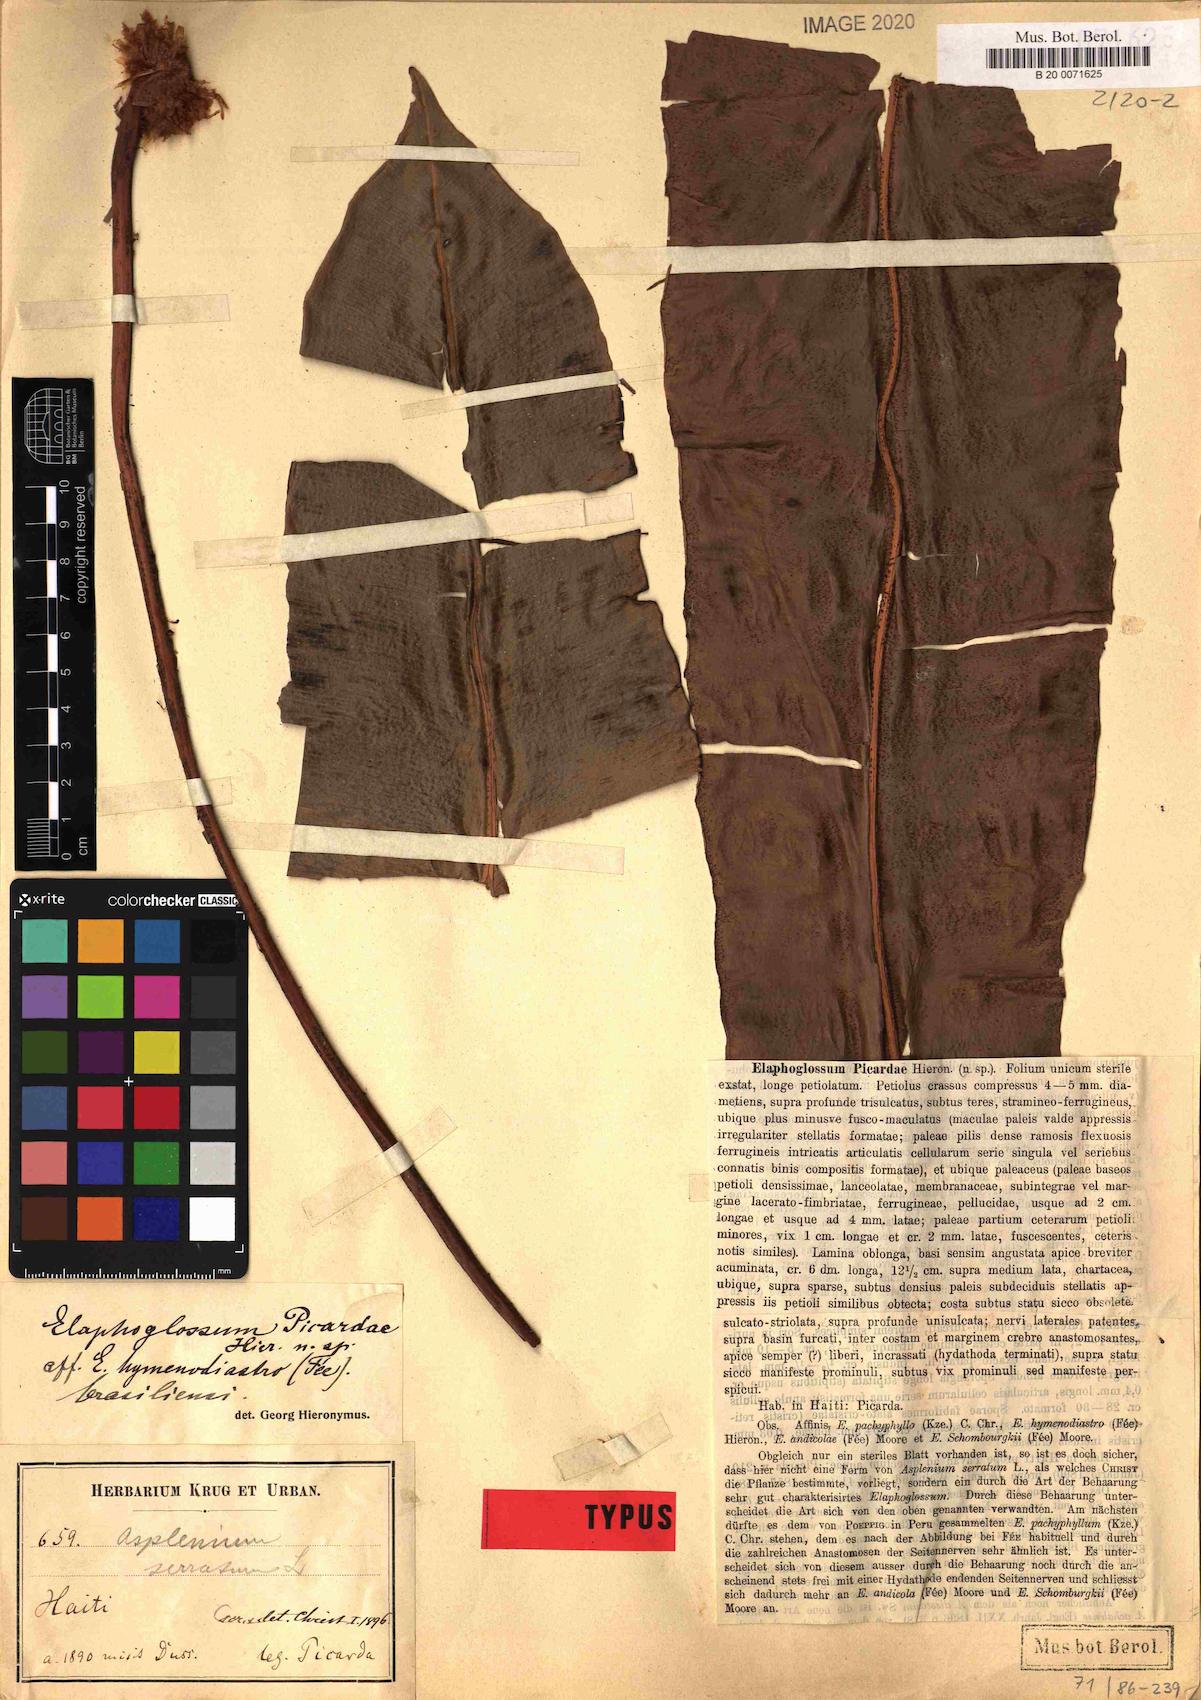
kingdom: Plantae
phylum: Tracheophyta
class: Polypodiopsida
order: Polypodiales
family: Dryopteridaceae
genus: Elaphoglossum
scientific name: Elaphoglossum picardae
